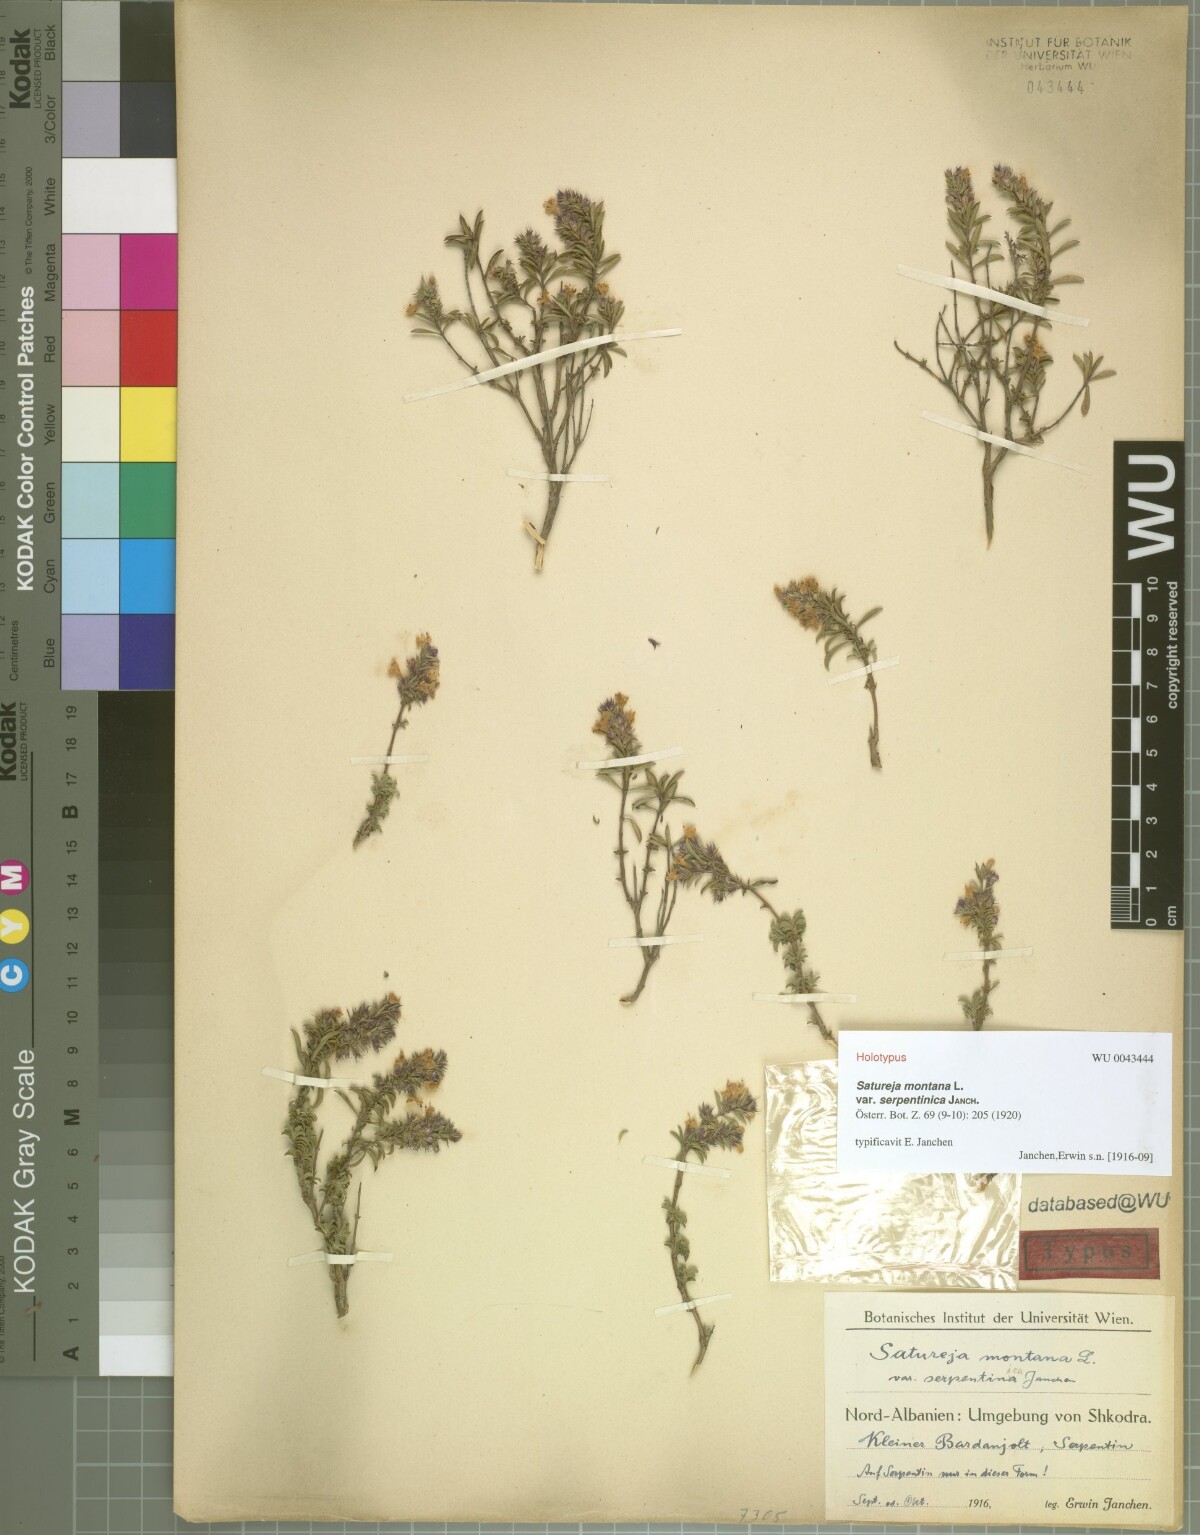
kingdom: Plantae
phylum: Tracheophyta
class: Magnoliopsida
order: Lamiales
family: Lamiaceae
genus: Satureja
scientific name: Satureja montana
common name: Winter savory
